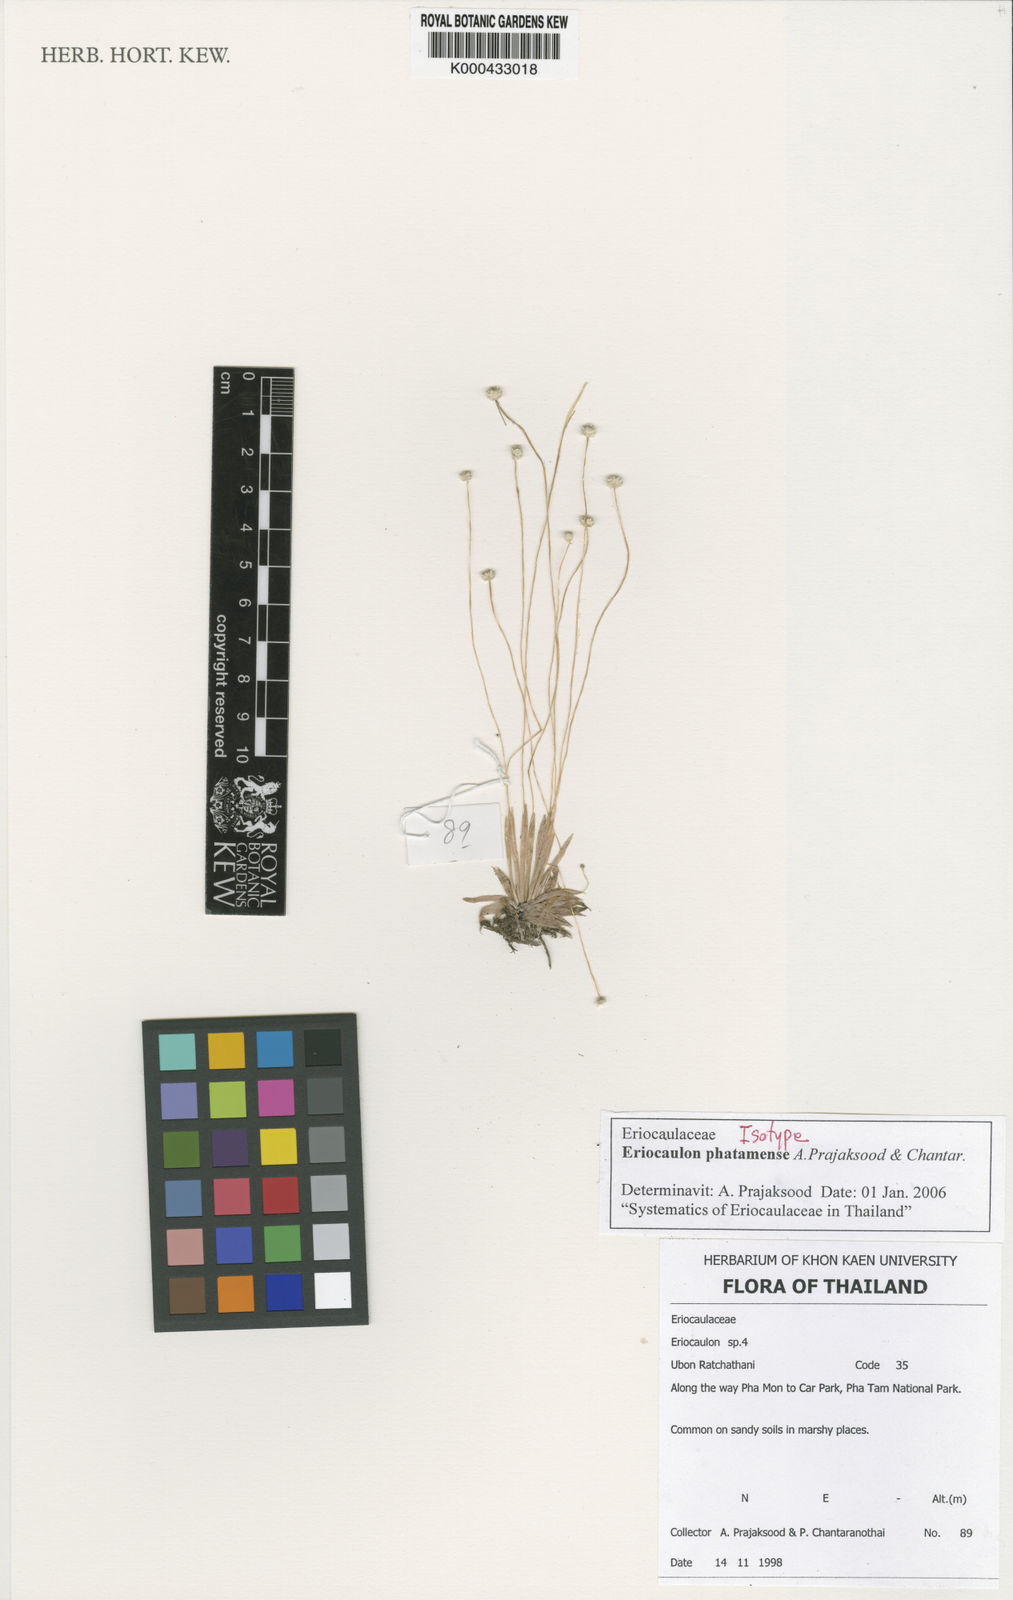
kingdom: Plantae
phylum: Tracheophyta
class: Liliopsida
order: Poales
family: Eriocaulaceae
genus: Eriocaulon
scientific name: Eriocaulon phatamense
